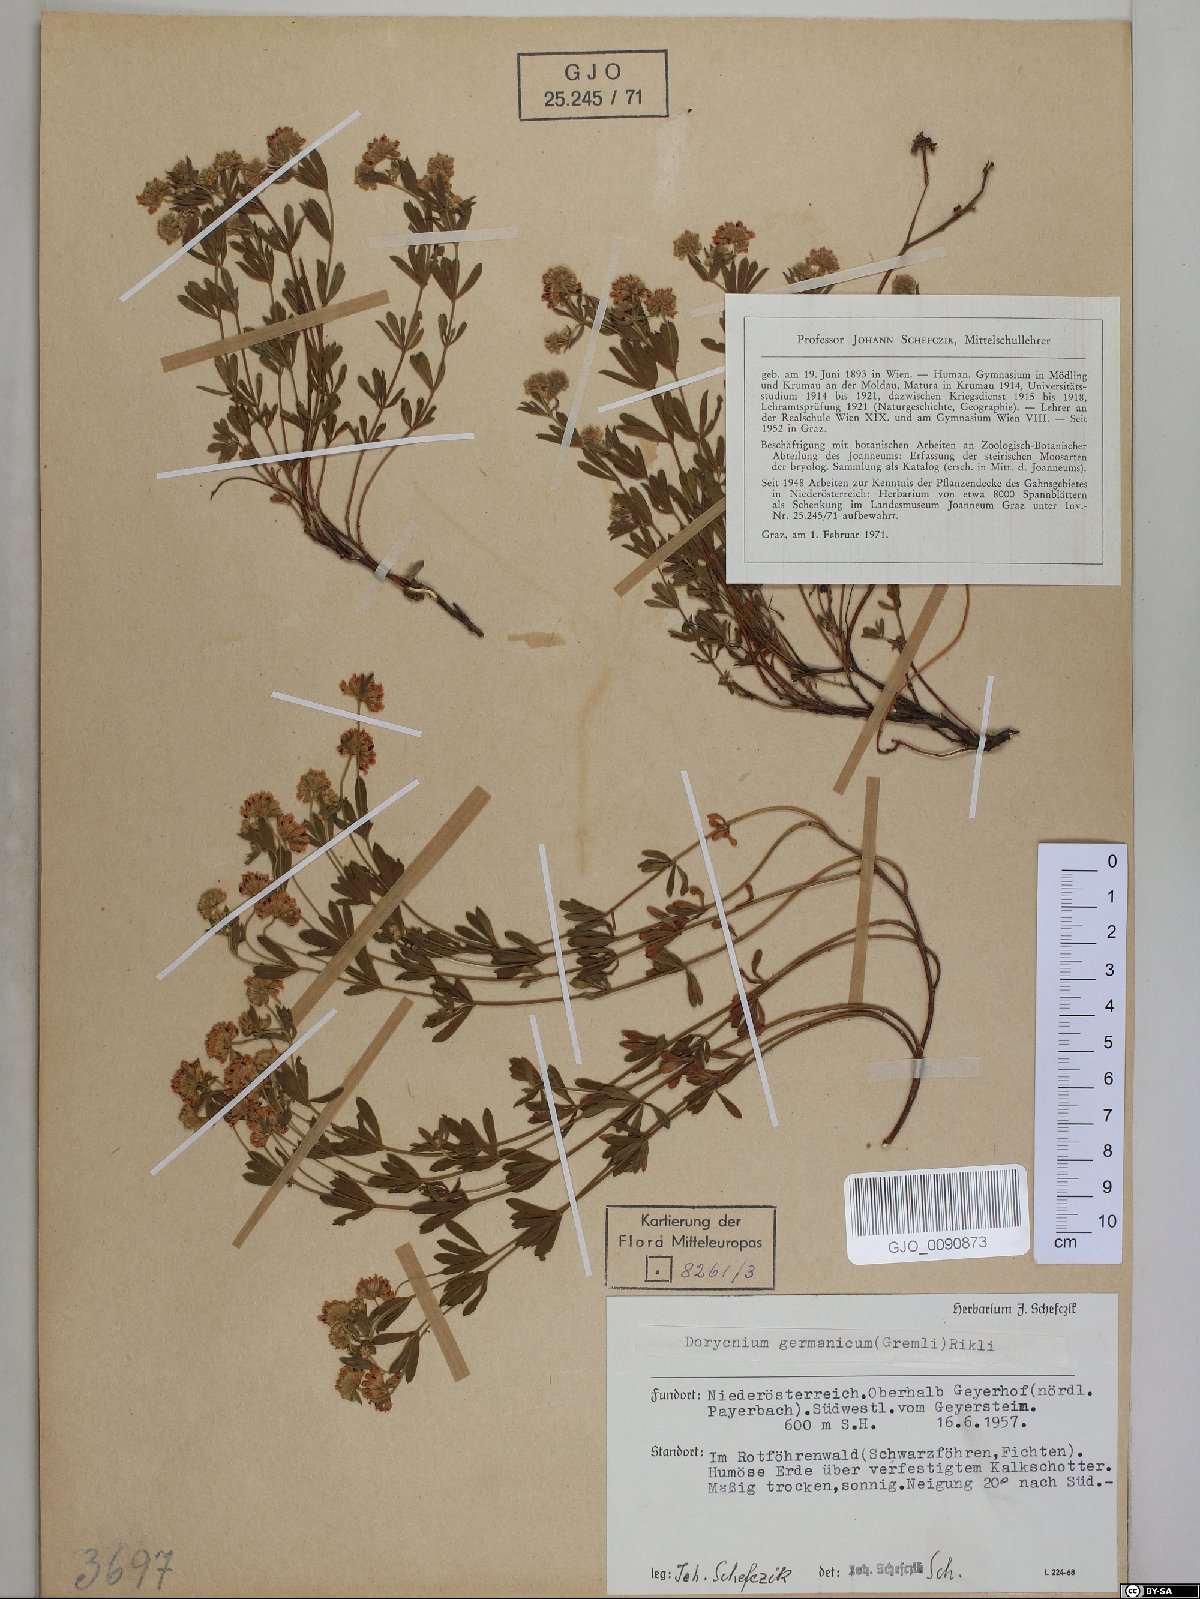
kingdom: Plantae
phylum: Tracheophyta
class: Magnoliopsida
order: Fabales
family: Fabaceae
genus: Lotus
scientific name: Lotus germanicus
